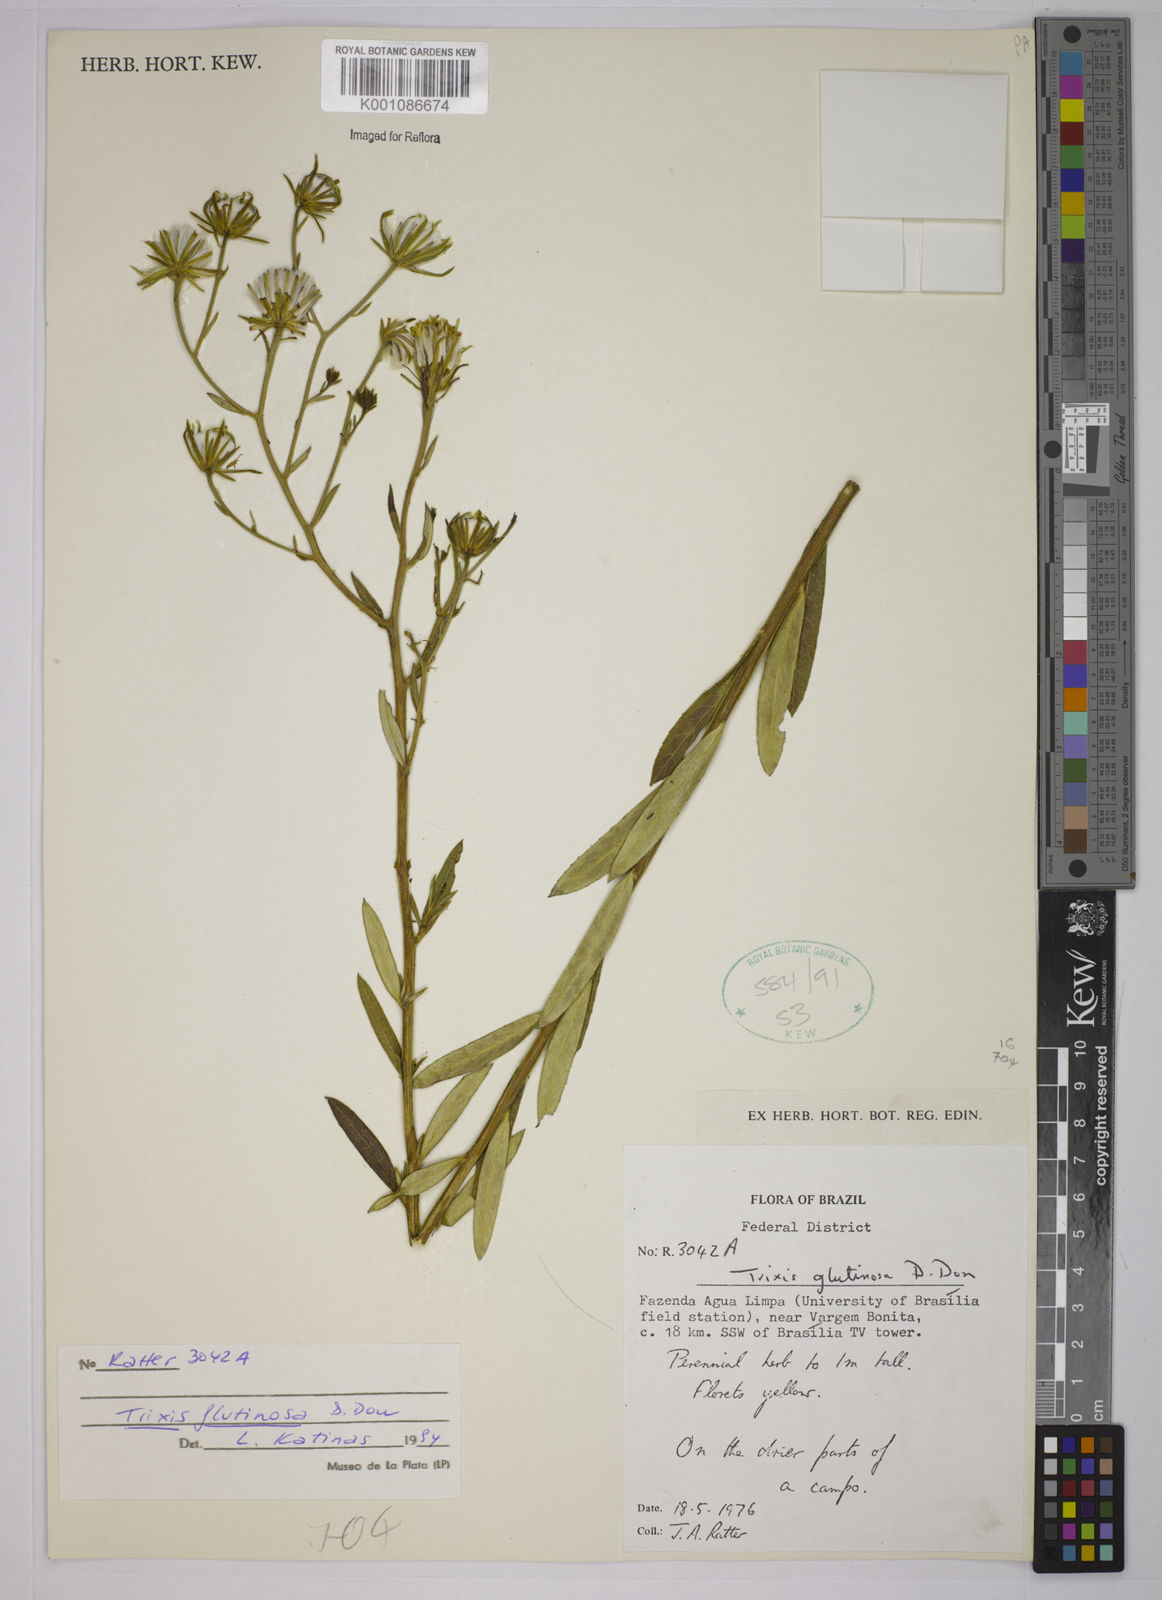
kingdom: Plantae
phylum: Tracheophyta
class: Magnoliopsida
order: Asterales
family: Asteraceae
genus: Trixis
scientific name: Trixis glutinosa
